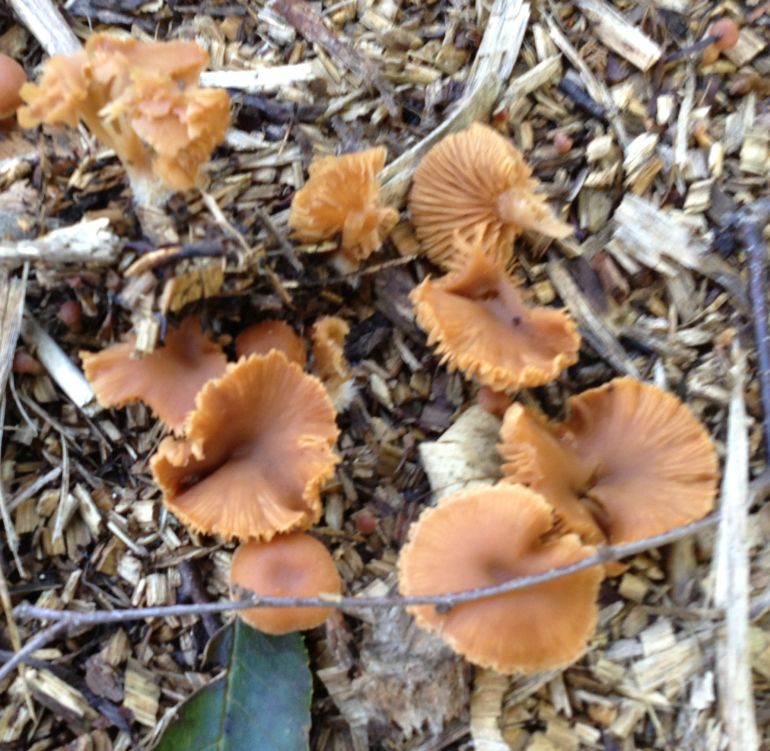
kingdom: Fungi
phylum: Basidiomycota
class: Agaricomycetes
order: Agaricales
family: Tubariaceae
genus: Tubaria
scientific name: Tubaria furfuracea
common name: kliddet fnughat
